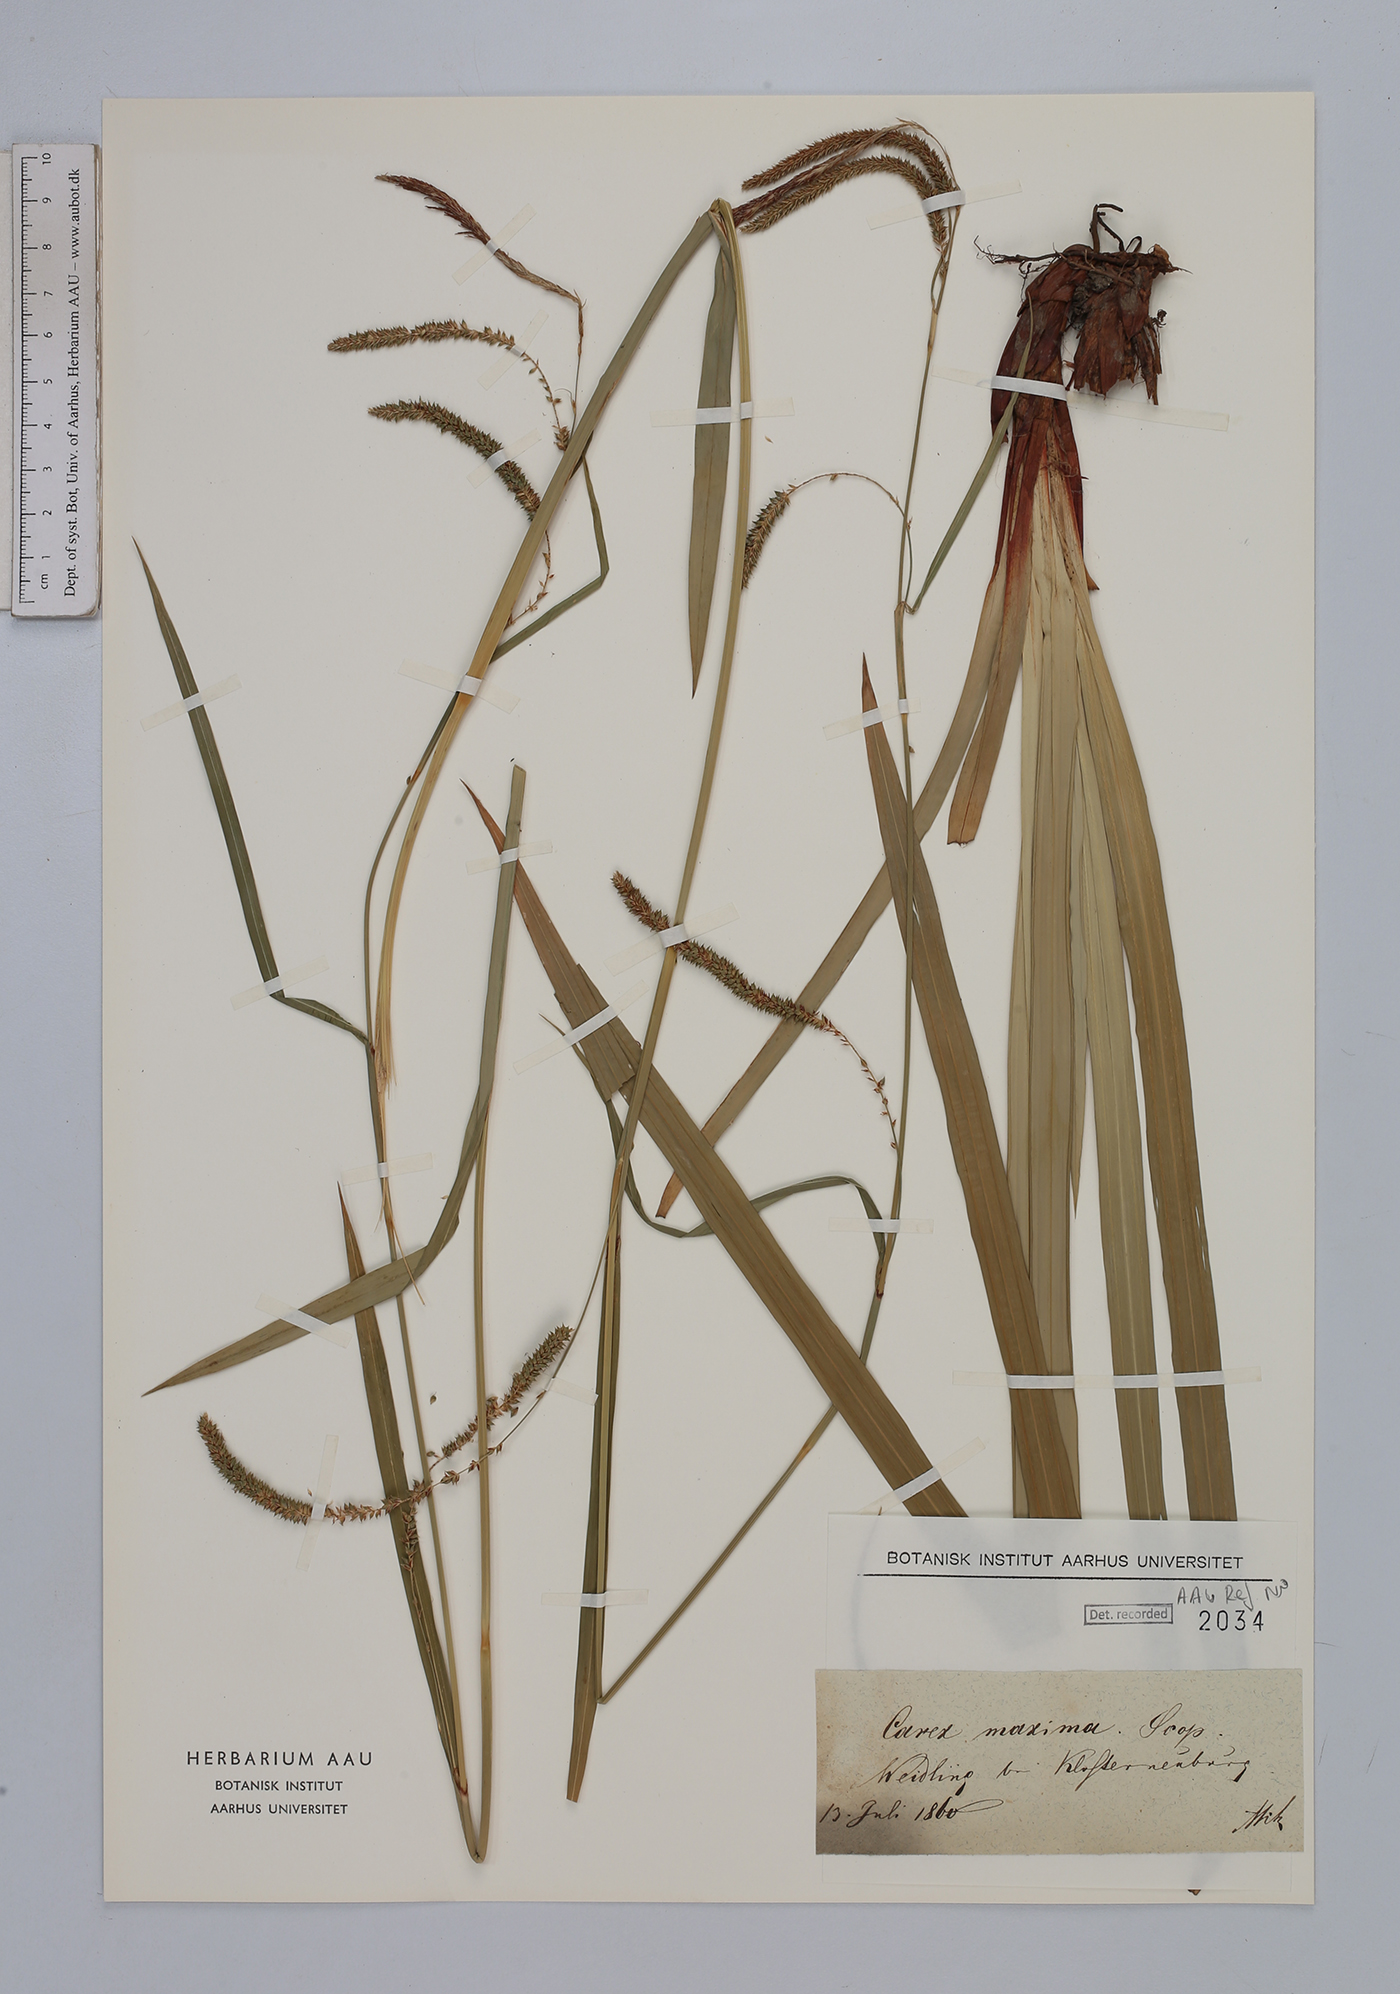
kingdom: Plantae
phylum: Tracheophyta
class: Liliopsida
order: Poales
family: Cyperaceae
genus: Carex
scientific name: Carex pendula
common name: Pendulous sedge
